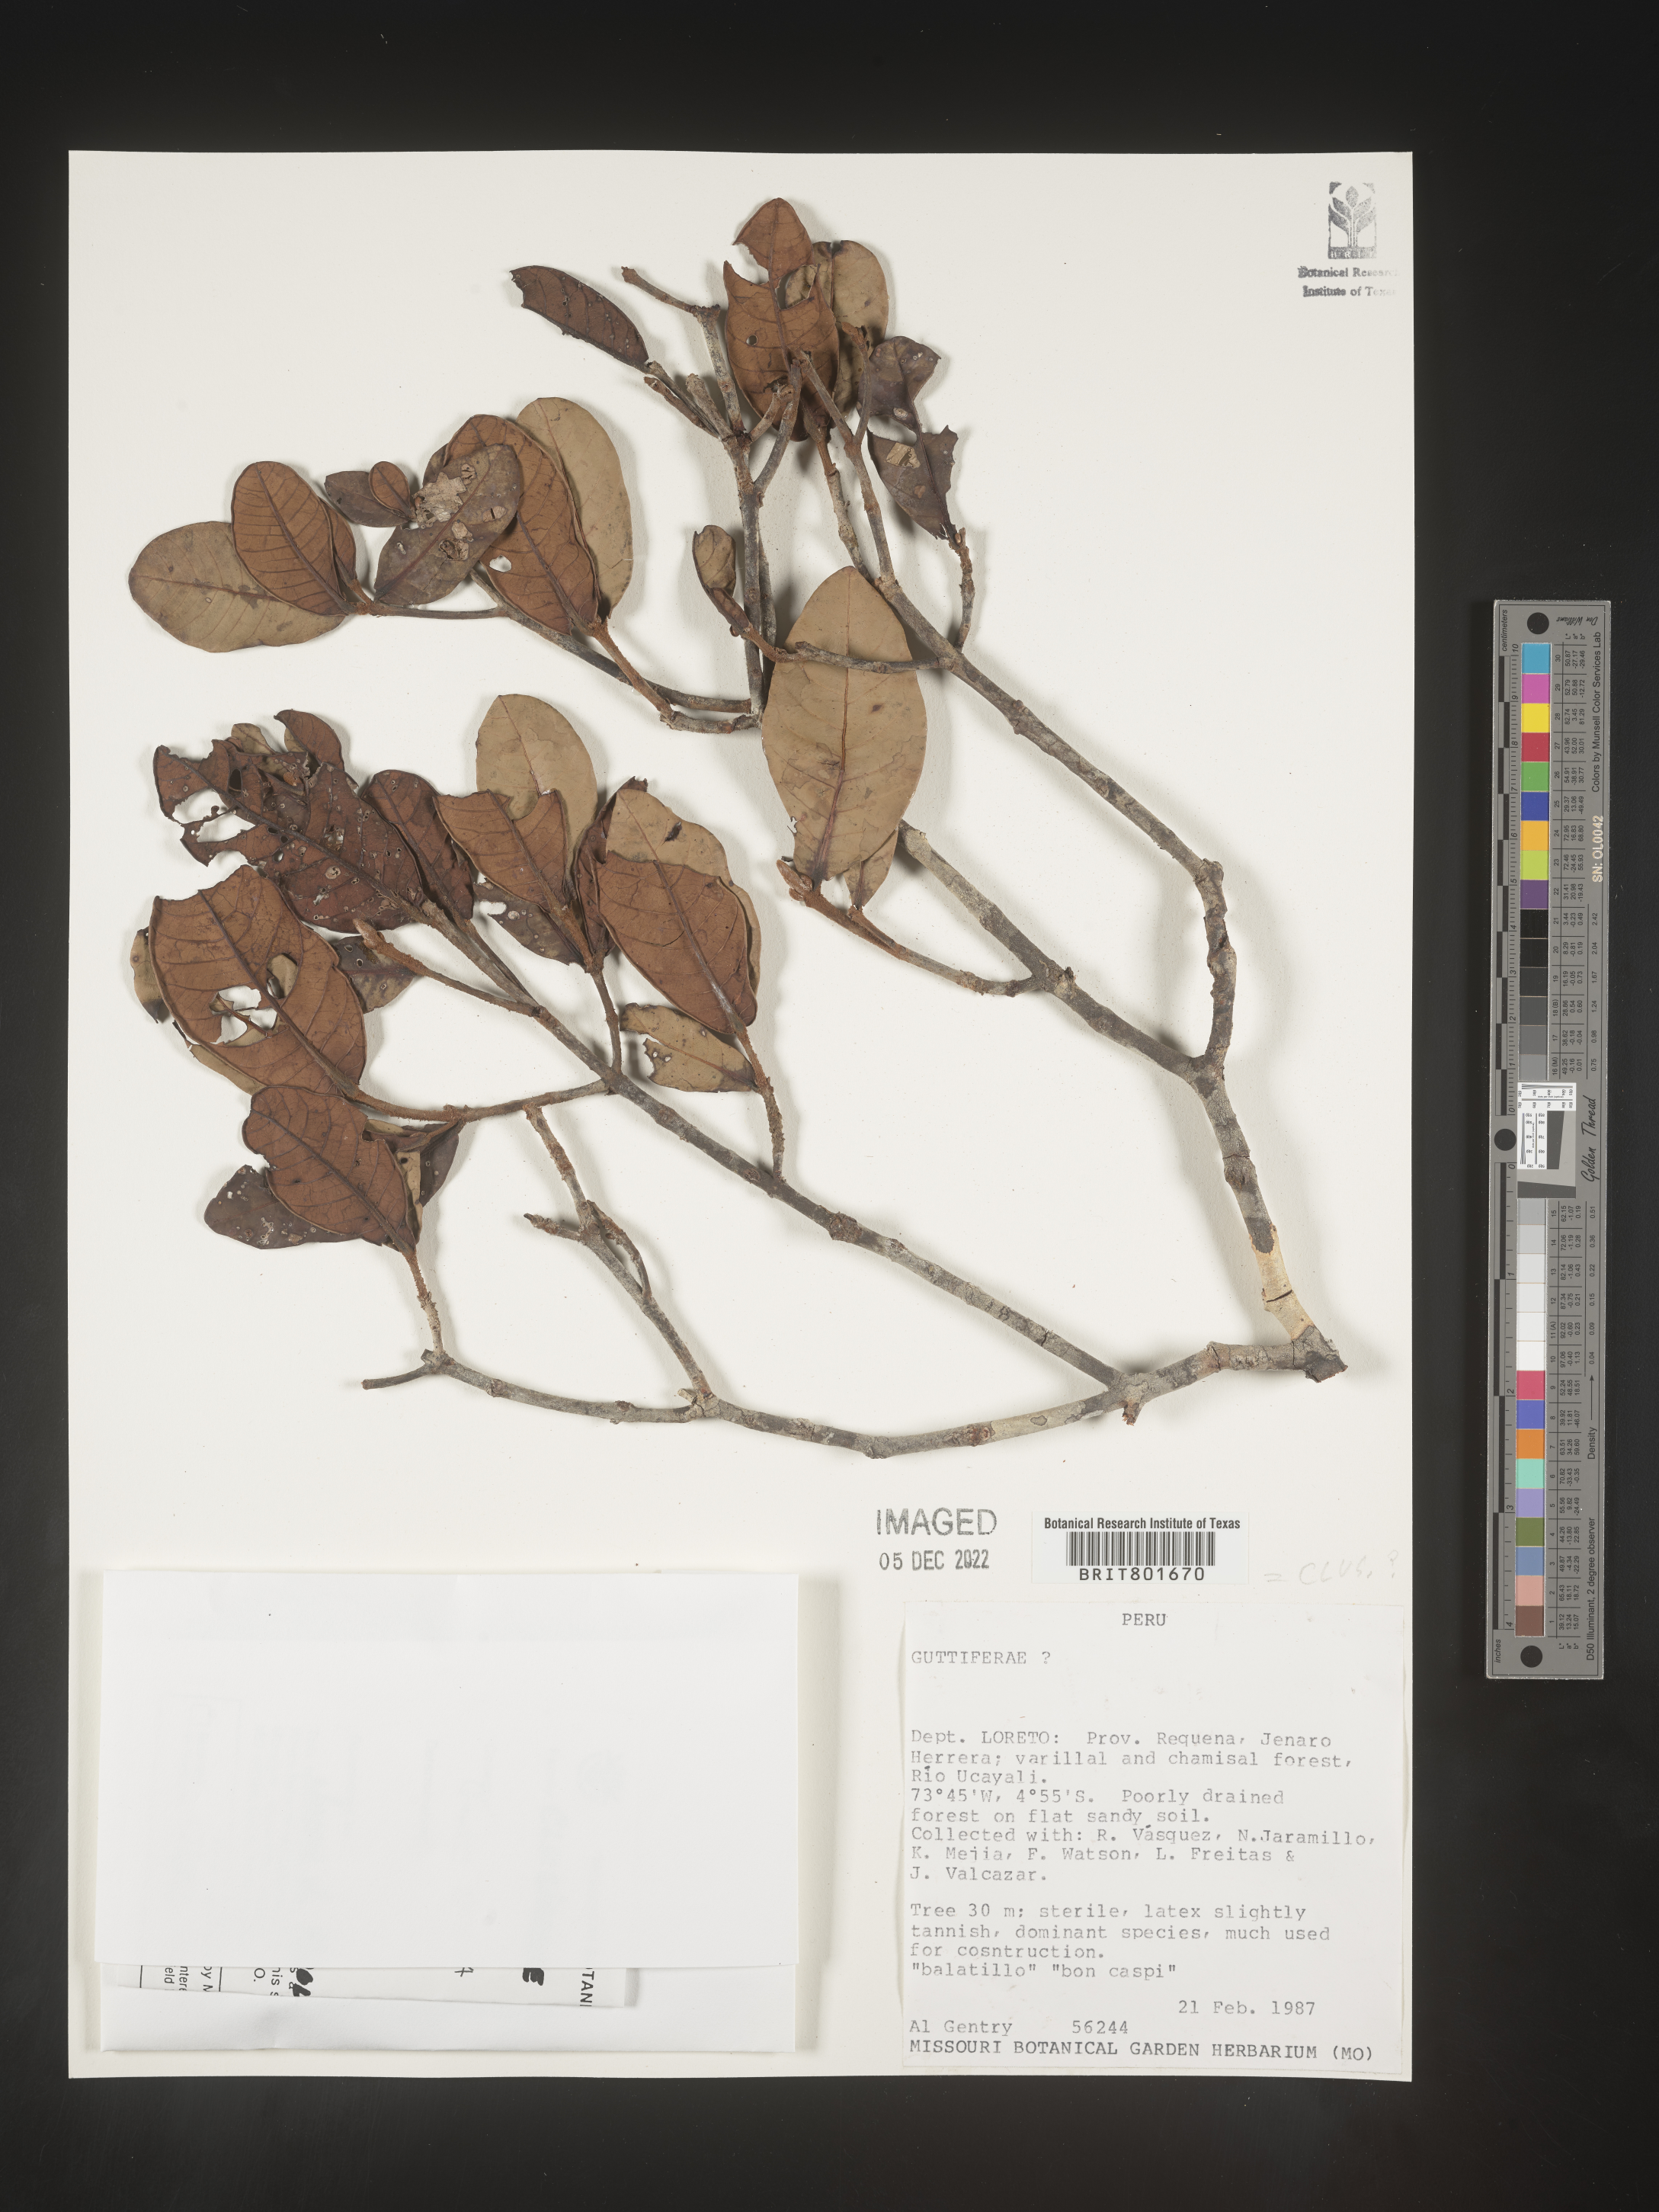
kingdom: Plantae
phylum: Tracheophyta
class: Magnoliopsida
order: Malpighiales
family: Clusiaceae
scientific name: Clusiaceae
